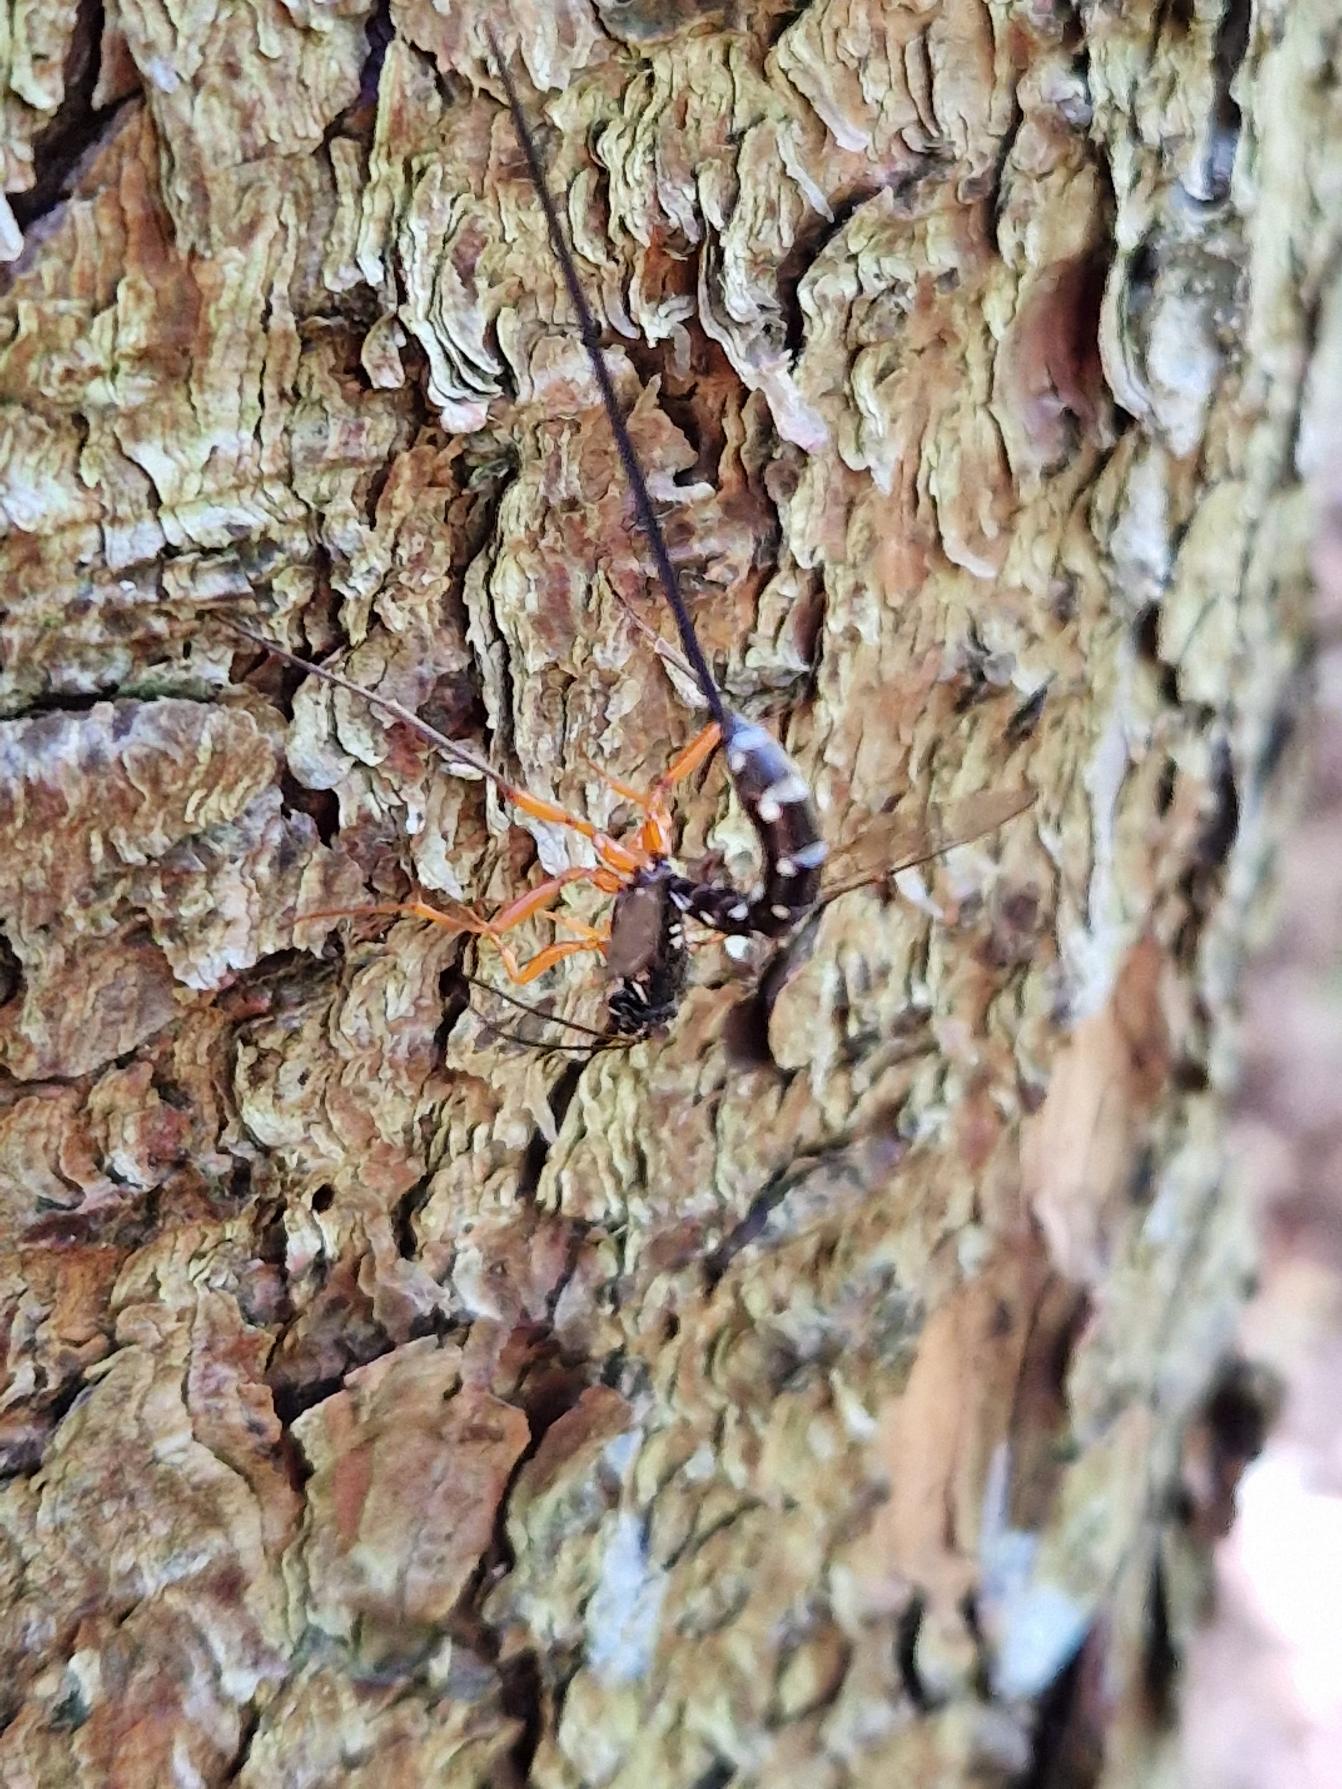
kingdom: Animalia
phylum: Arthropoda
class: Insecta
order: Hymenoptera
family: Ichneumonidae
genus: Rhyssa
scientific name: Rhyssa persuasoria
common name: Sabelhveps
